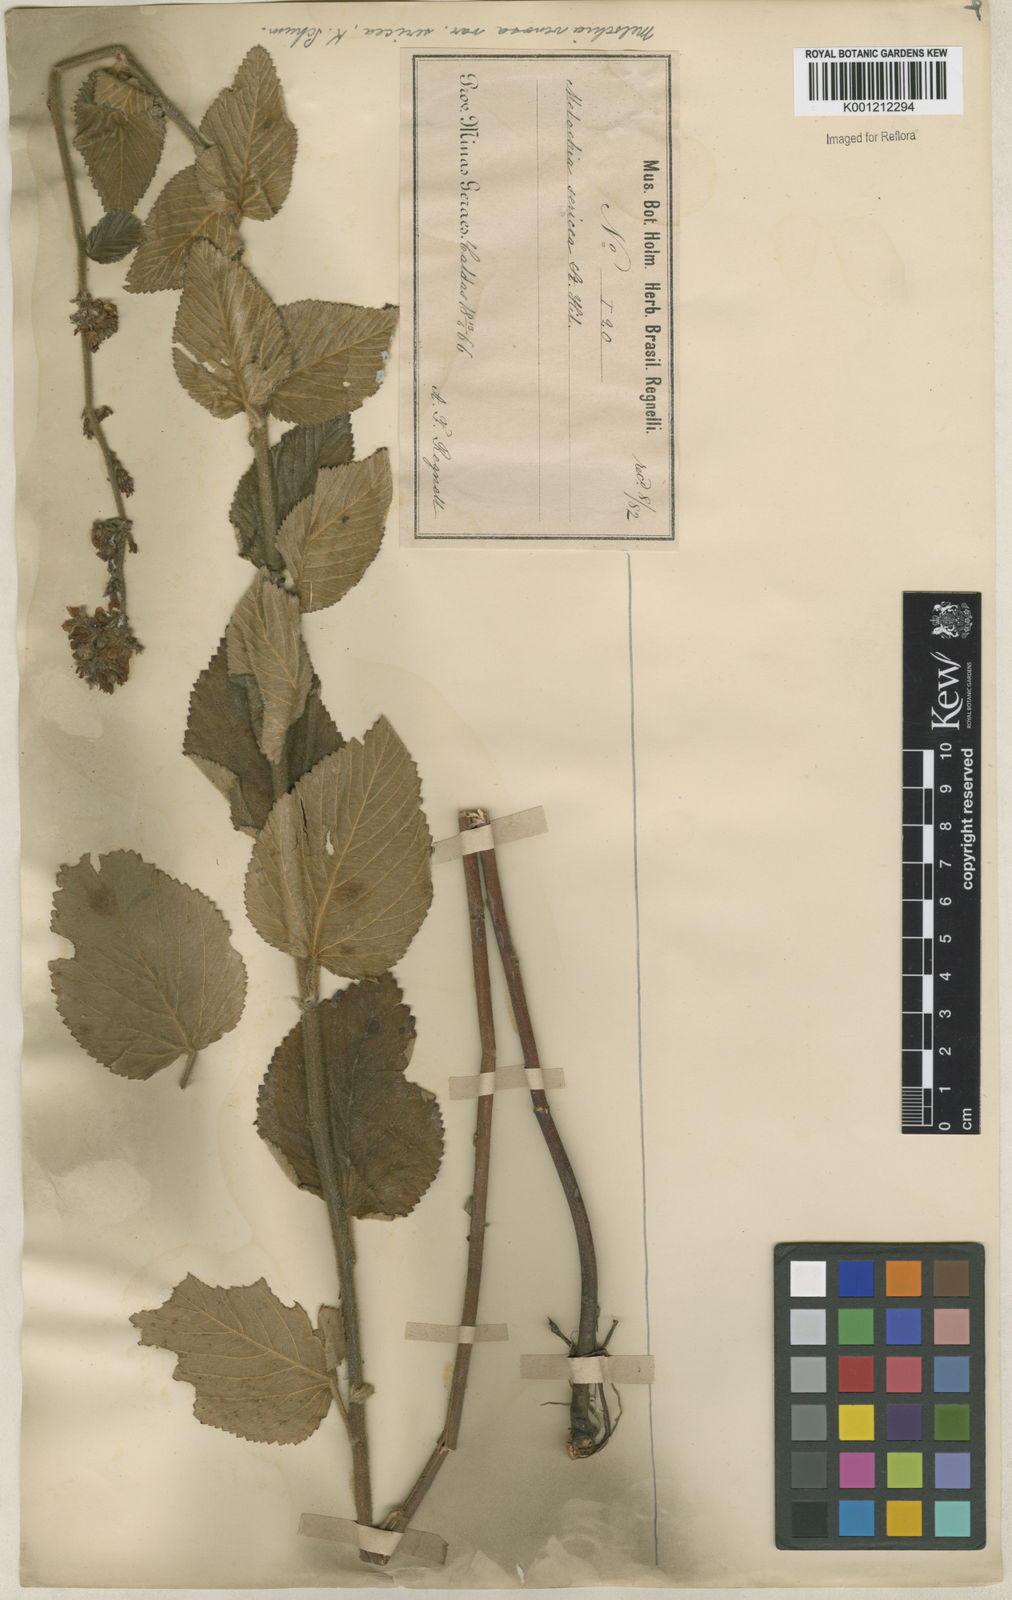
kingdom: Plantae
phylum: Tracheophyta
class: Magnoliopsida
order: Malvales
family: Malvaceae
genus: Melochia
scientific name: Melochia pilosa
